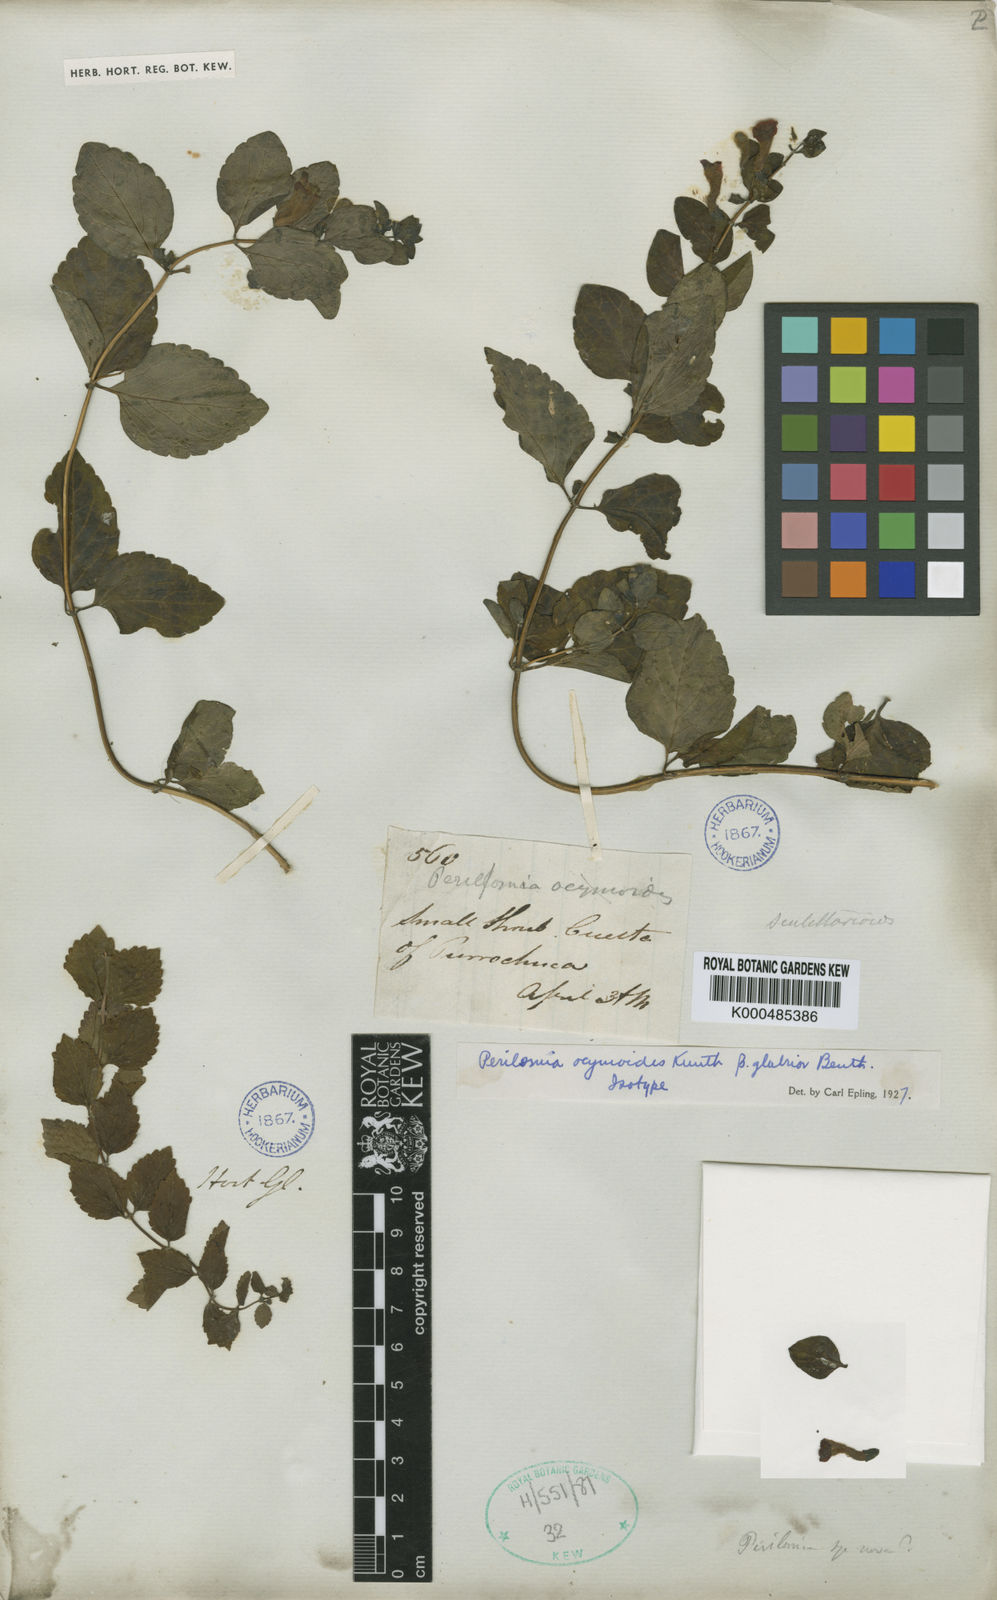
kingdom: Plantae
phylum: Tracheophyta
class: Magnoliopsida
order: Lamiales
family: Lamiaceae
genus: Scutellaria
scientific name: Scutellaria ocymoides
